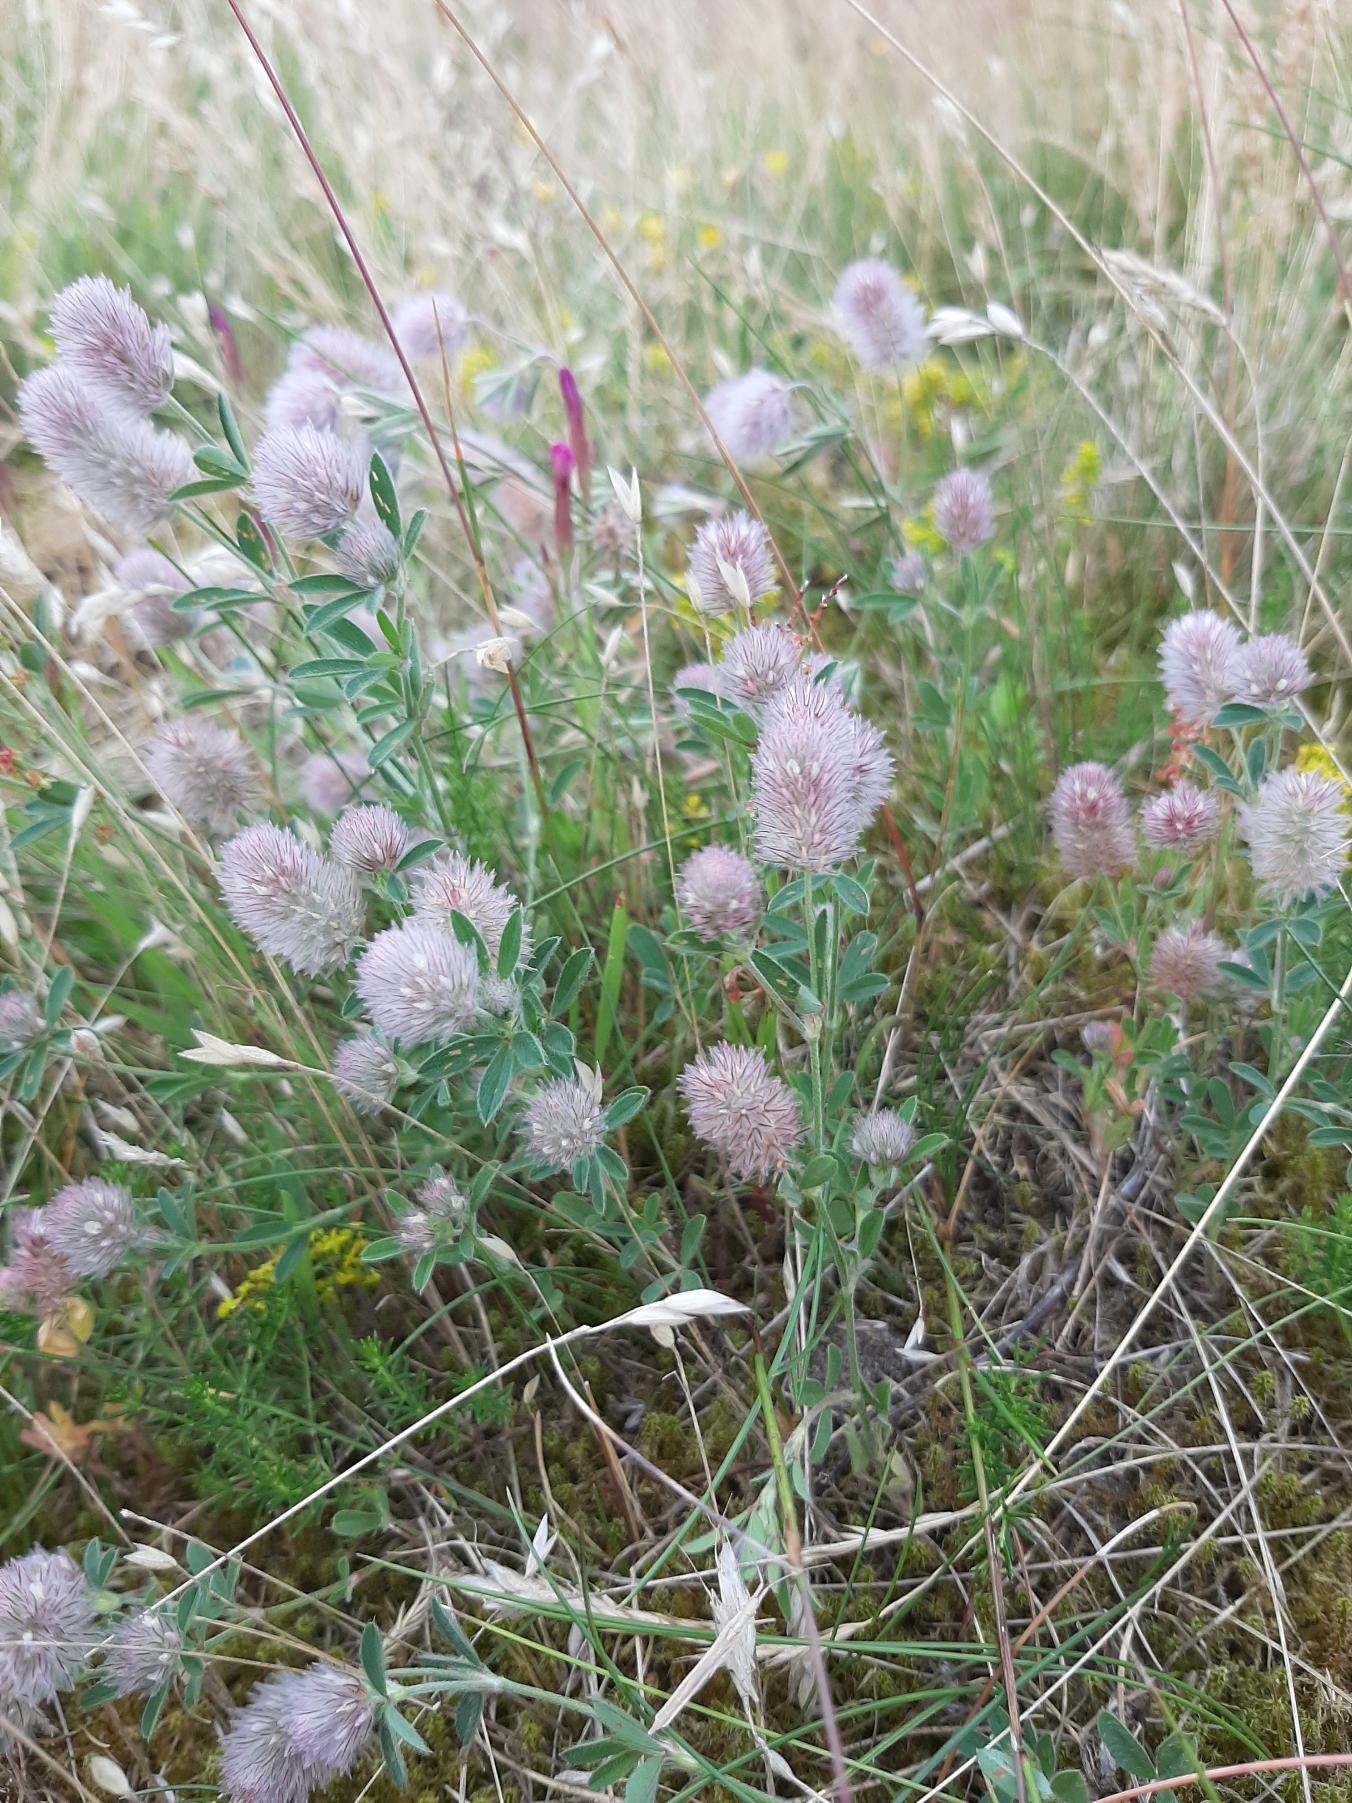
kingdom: Plantae
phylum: Tracheophyta
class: Magnoliopsida
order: Fabales
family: Fabaceae
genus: Trifolium
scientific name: Trifolium arvense
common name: Hare-kløver
